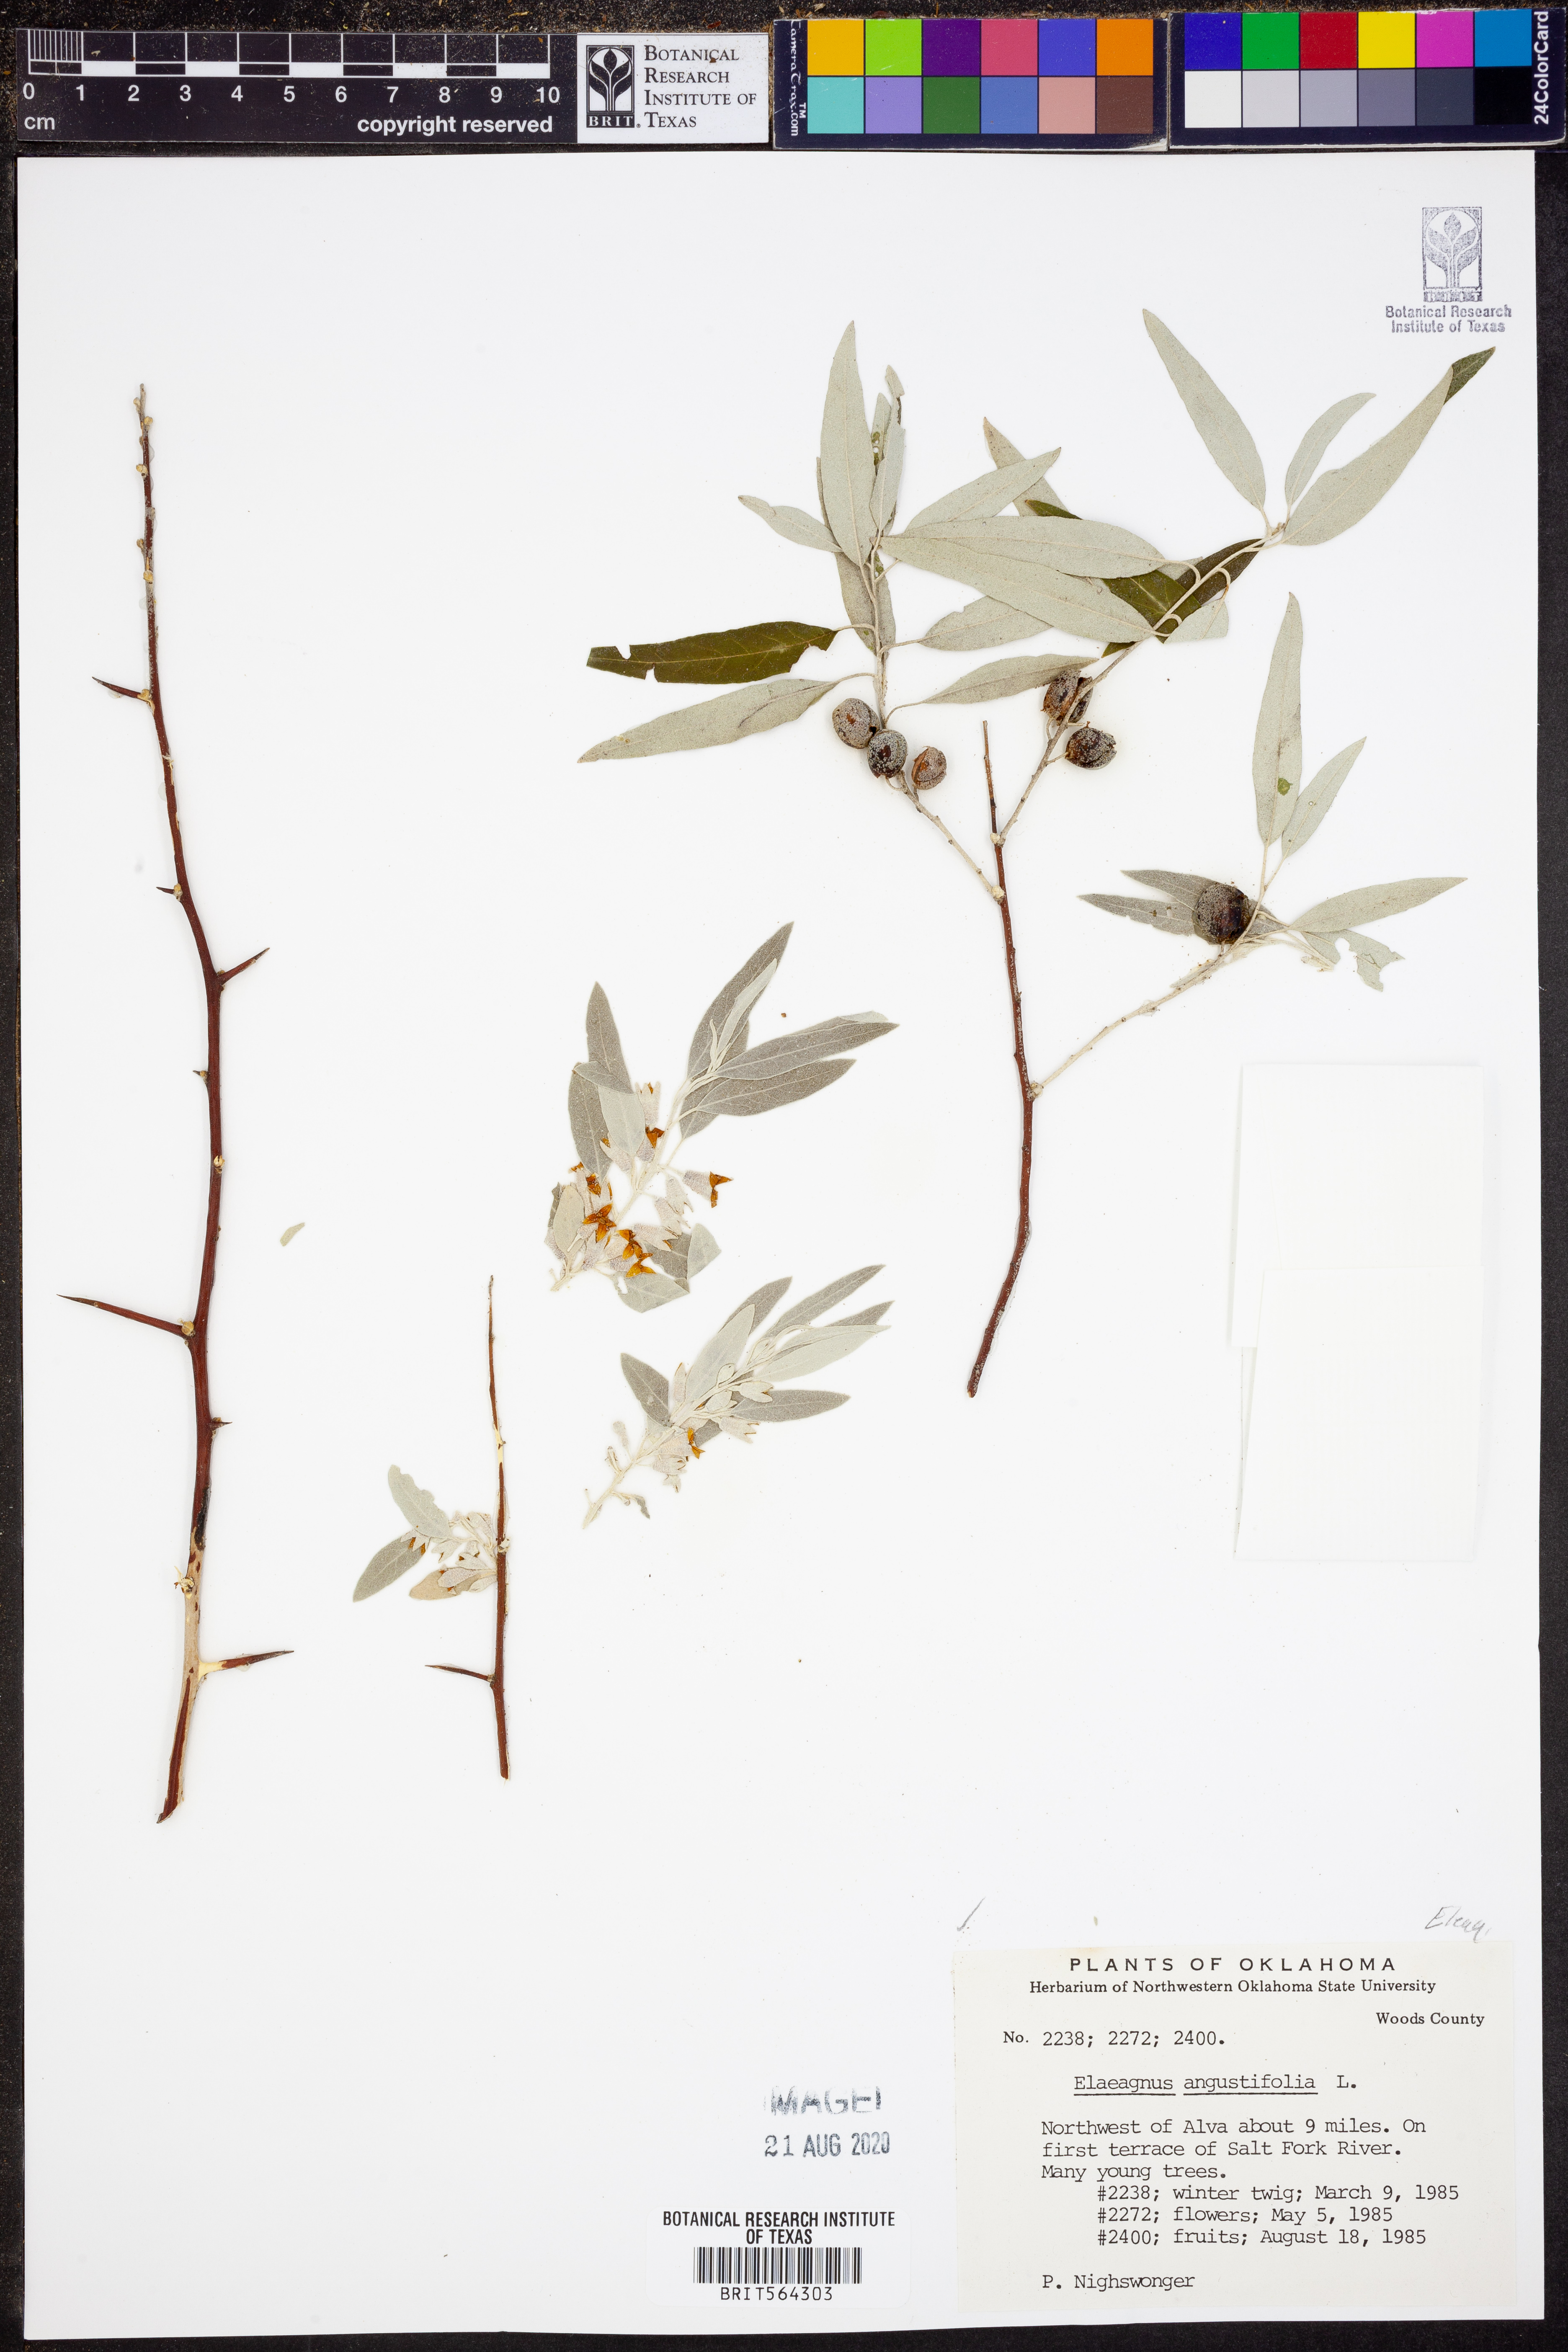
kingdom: Plantae
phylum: Tracheophyta
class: Magnoliopsida
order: Rosales
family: Elaeagnaceae
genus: Elaeagnus
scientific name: Elaeagnus angustifolia
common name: Russian olive
